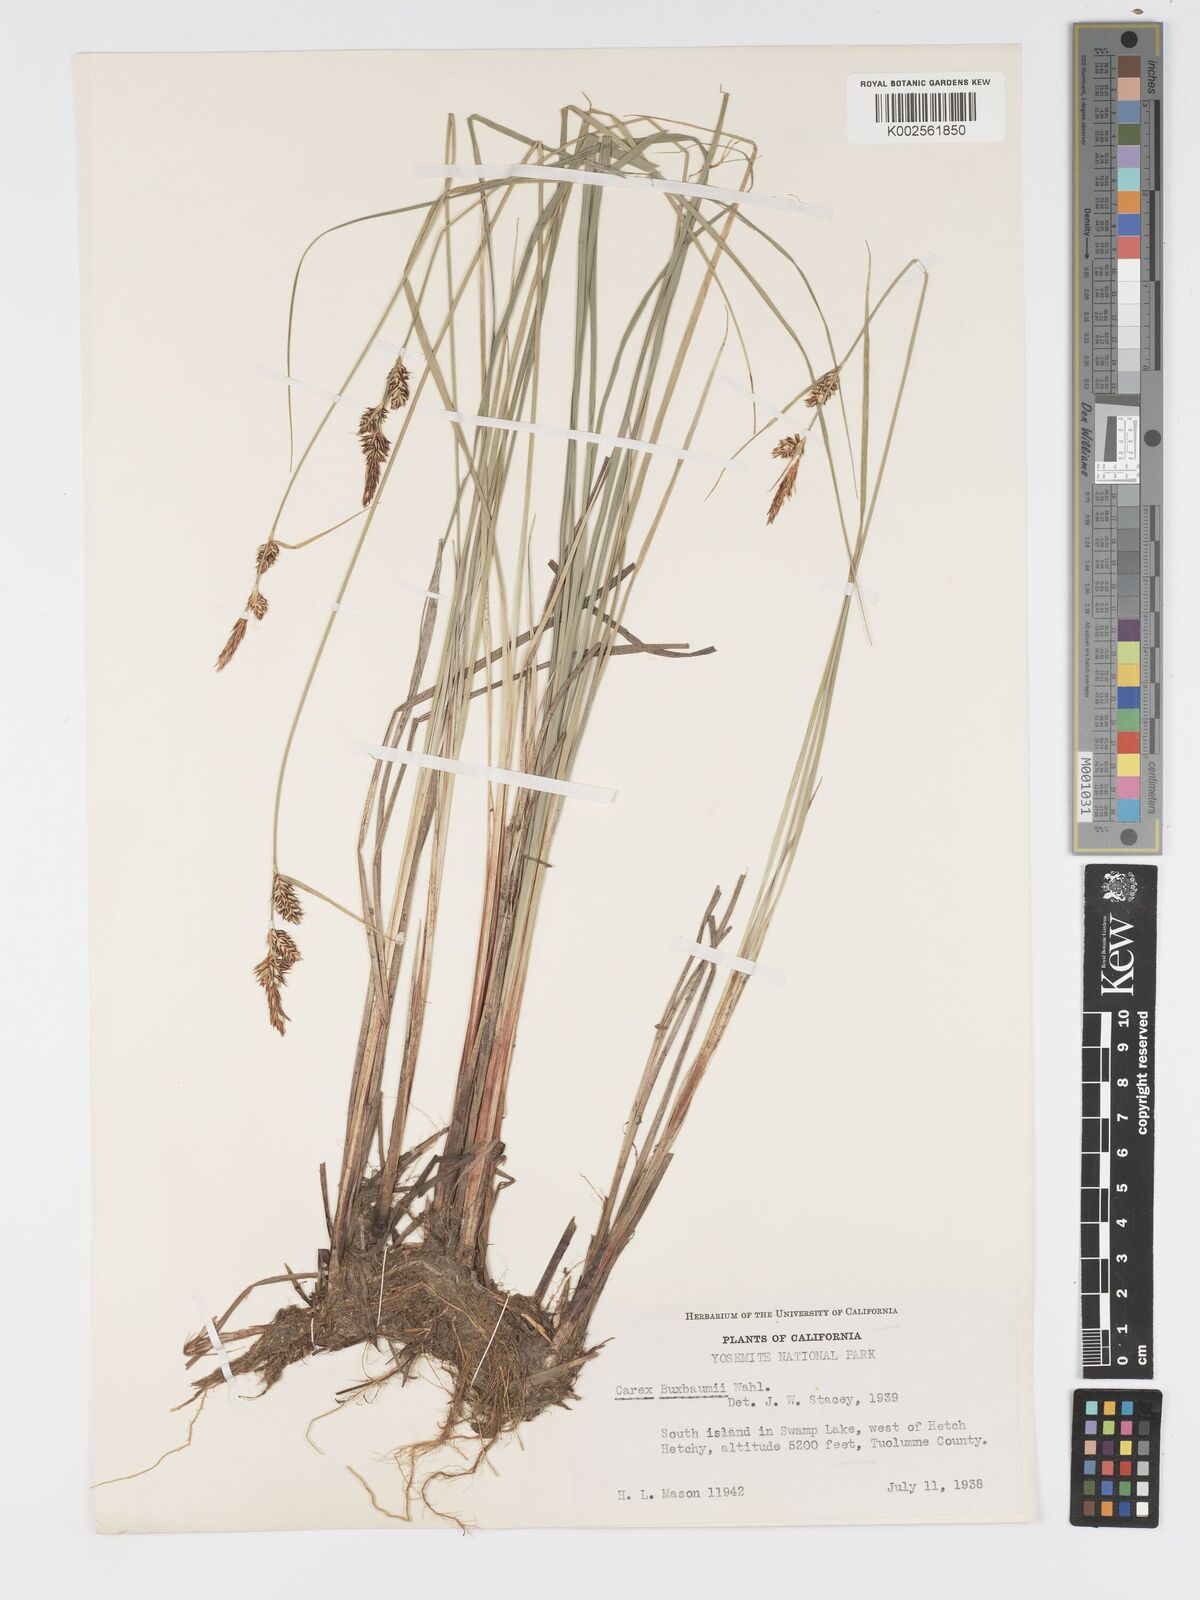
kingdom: Plantae
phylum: Tracheophyta
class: Liliopsida
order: Poales
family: Cyperaceae
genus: Carex
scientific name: Carex buxbaumii
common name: Club sedge
